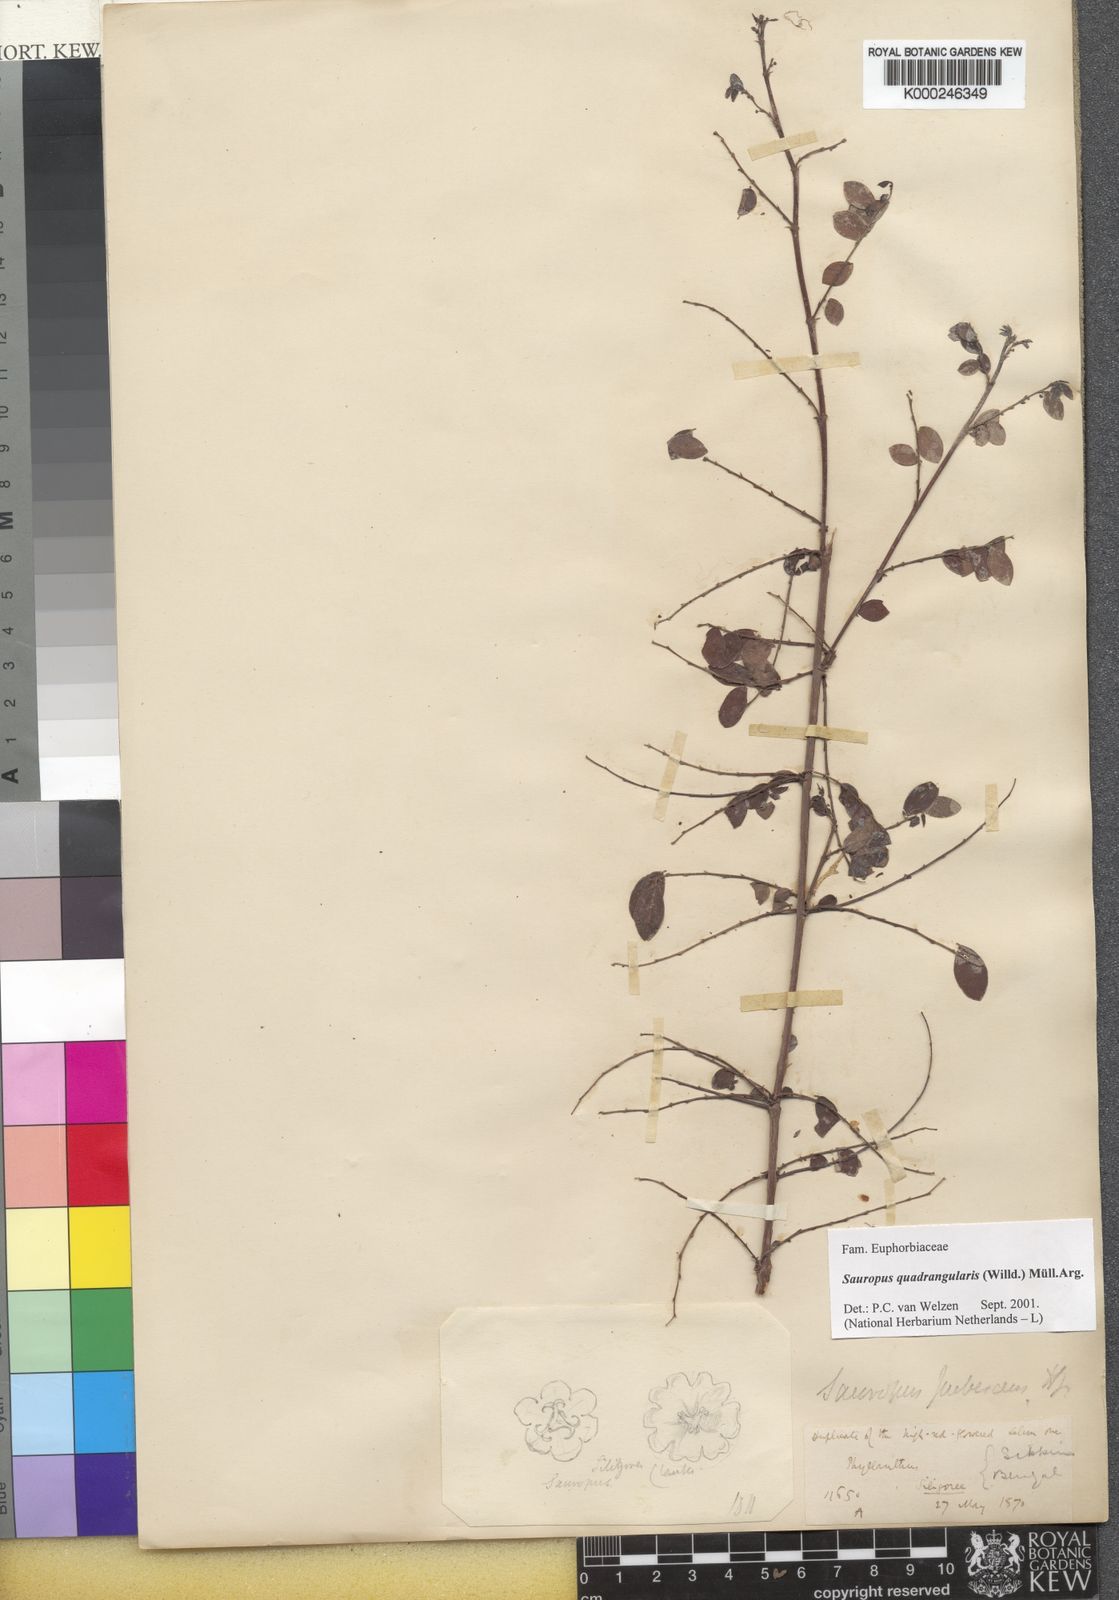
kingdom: Animalia
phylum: Chordata
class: Amphibia
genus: Sauropus
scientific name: Sauropus
